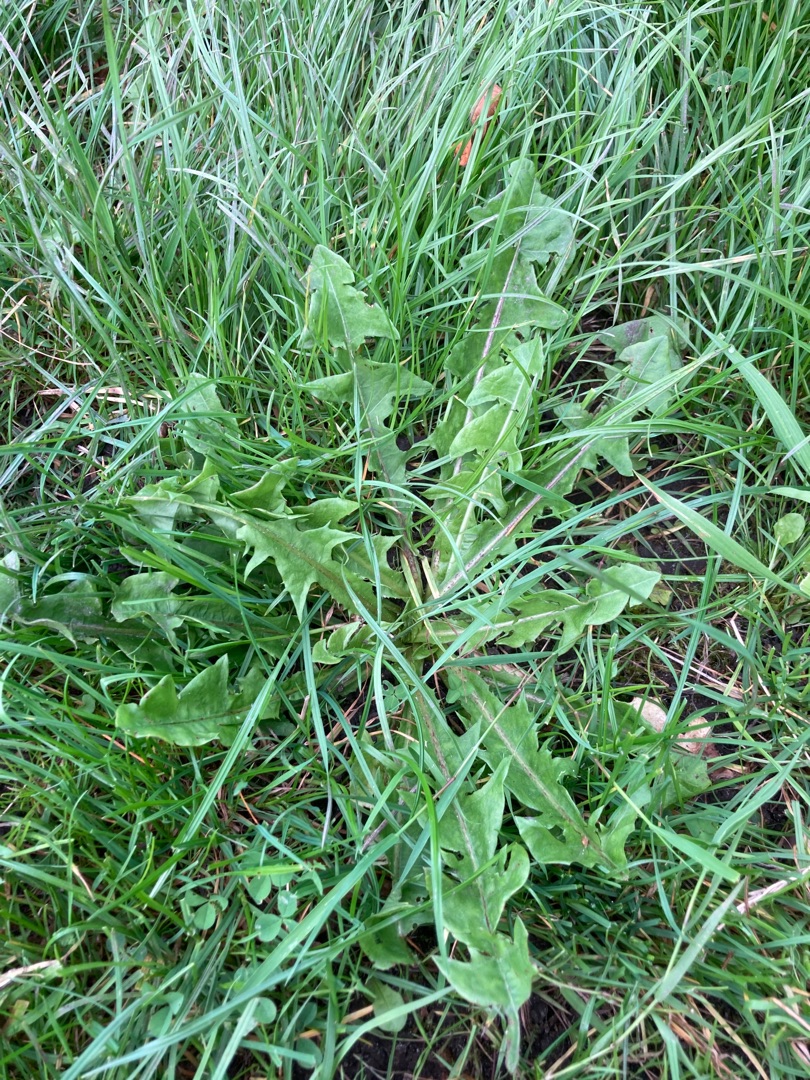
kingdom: Plantae
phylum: Tracheophyta
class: Magnoliopsida
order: Asterales
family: Asteraceae
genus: Taraxacum
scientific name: Taraxacum
